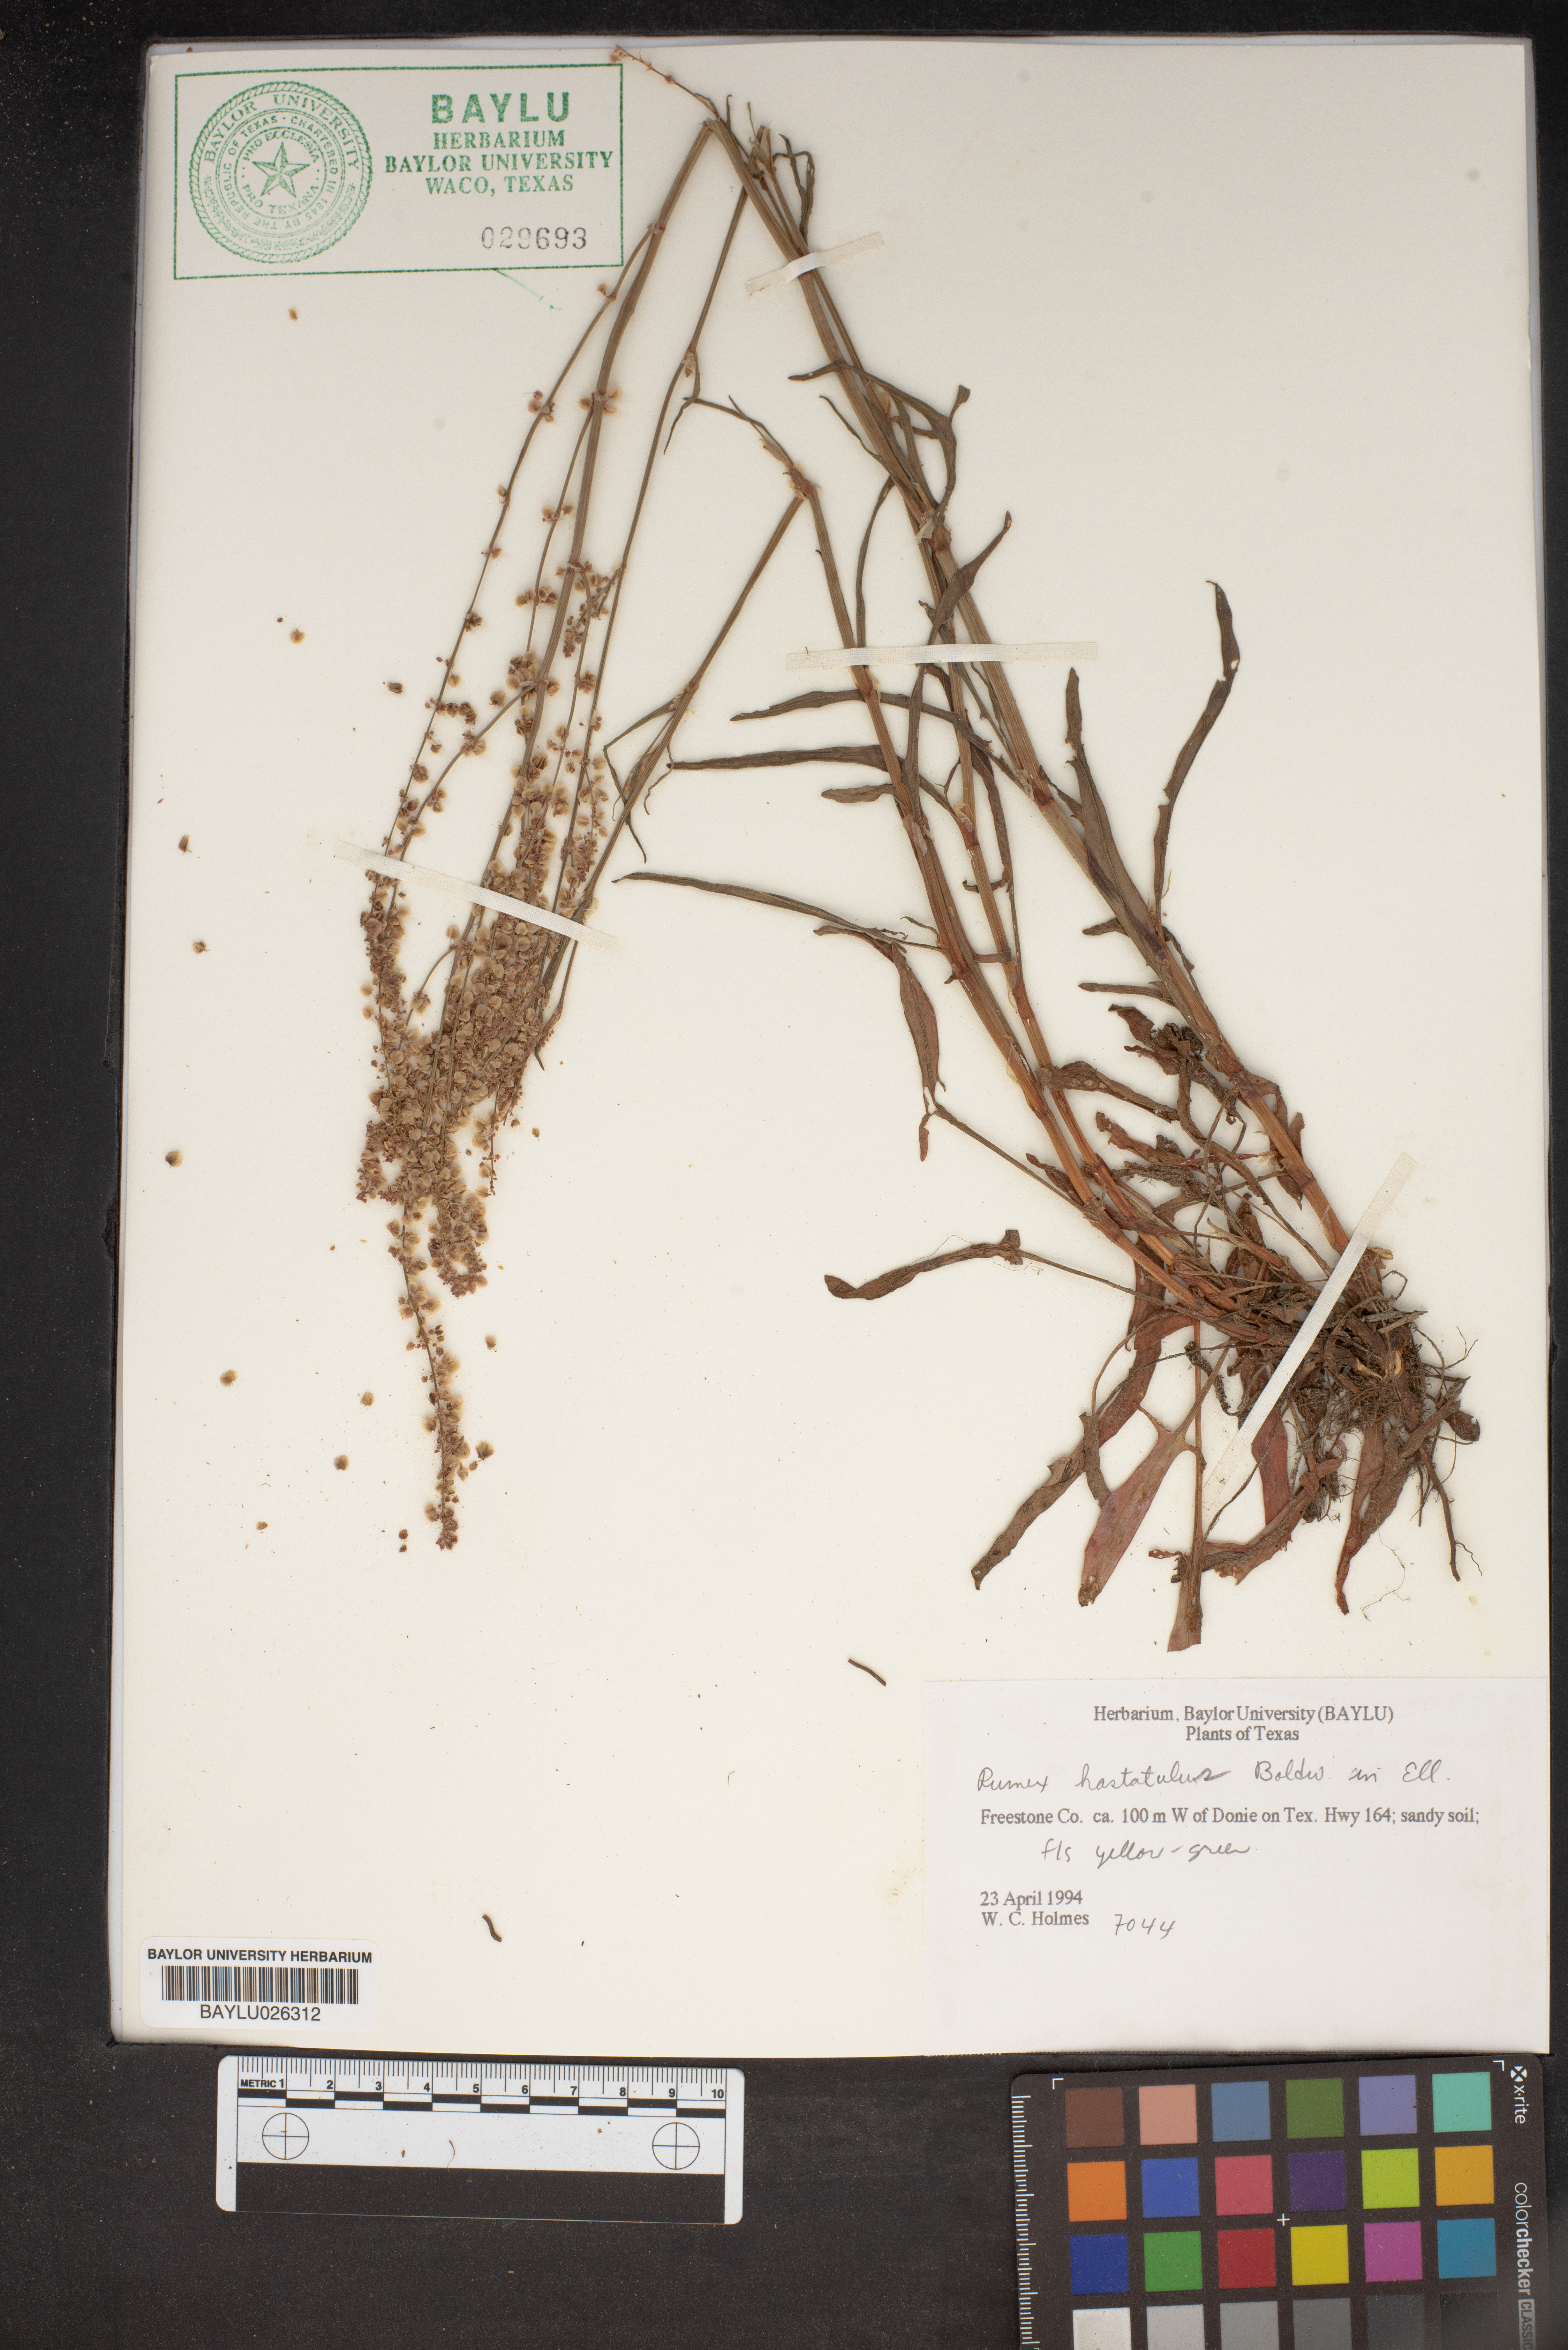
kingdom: Plantae
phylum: Tracheophyta
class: Magnoliopsida
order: Caryophyllales
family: Polygonaceae
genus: Rumex
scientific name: Rumex hastatulus
